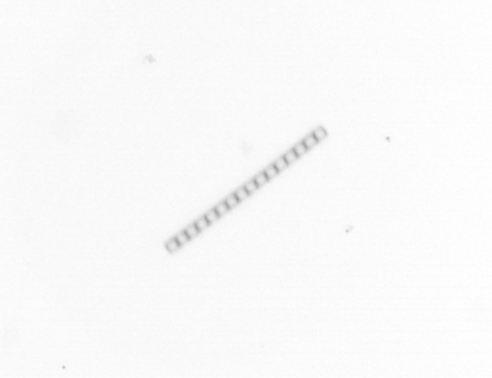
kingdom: Chromista
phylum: Ochrophyta
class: Bacillariophyceae
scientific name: Bacillariophyceae
